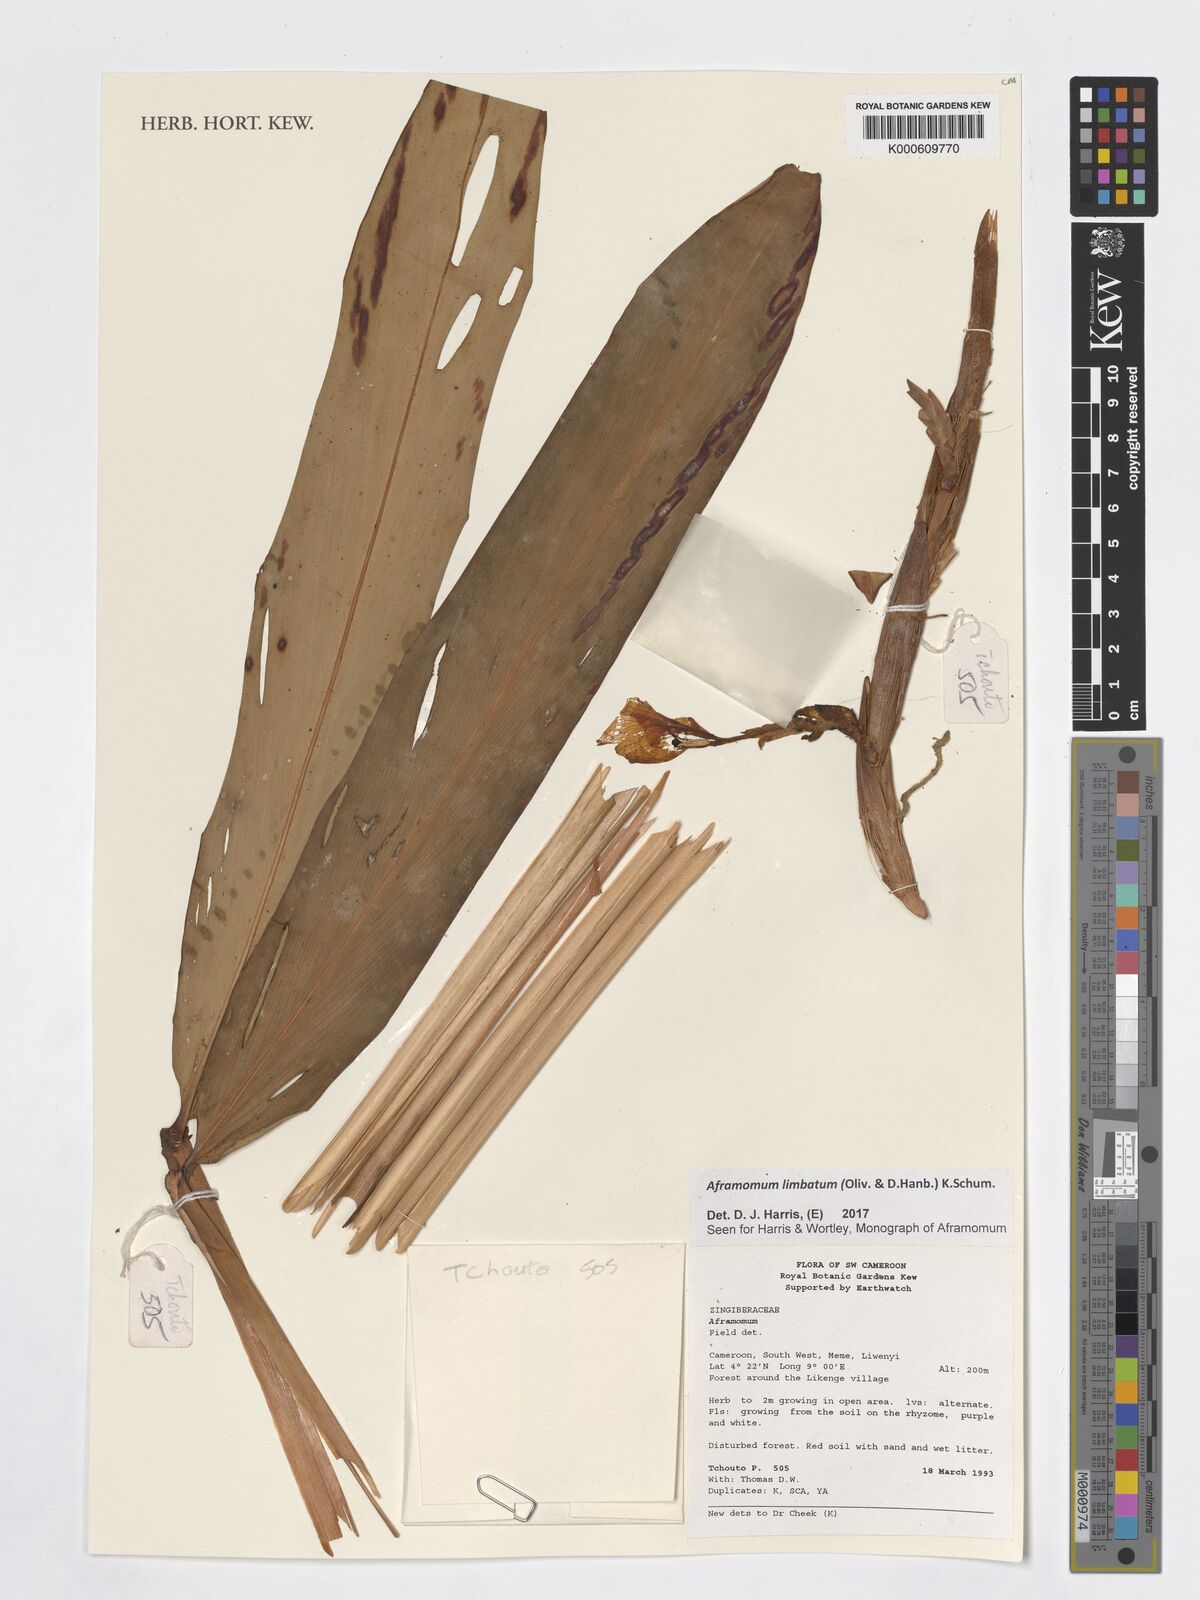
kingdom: Plantae
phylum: Tracheophyta
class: Liliopsida
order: Zingiberales
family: Zingiberaceae
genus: Aframomum
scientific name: Aframomum limbatum
